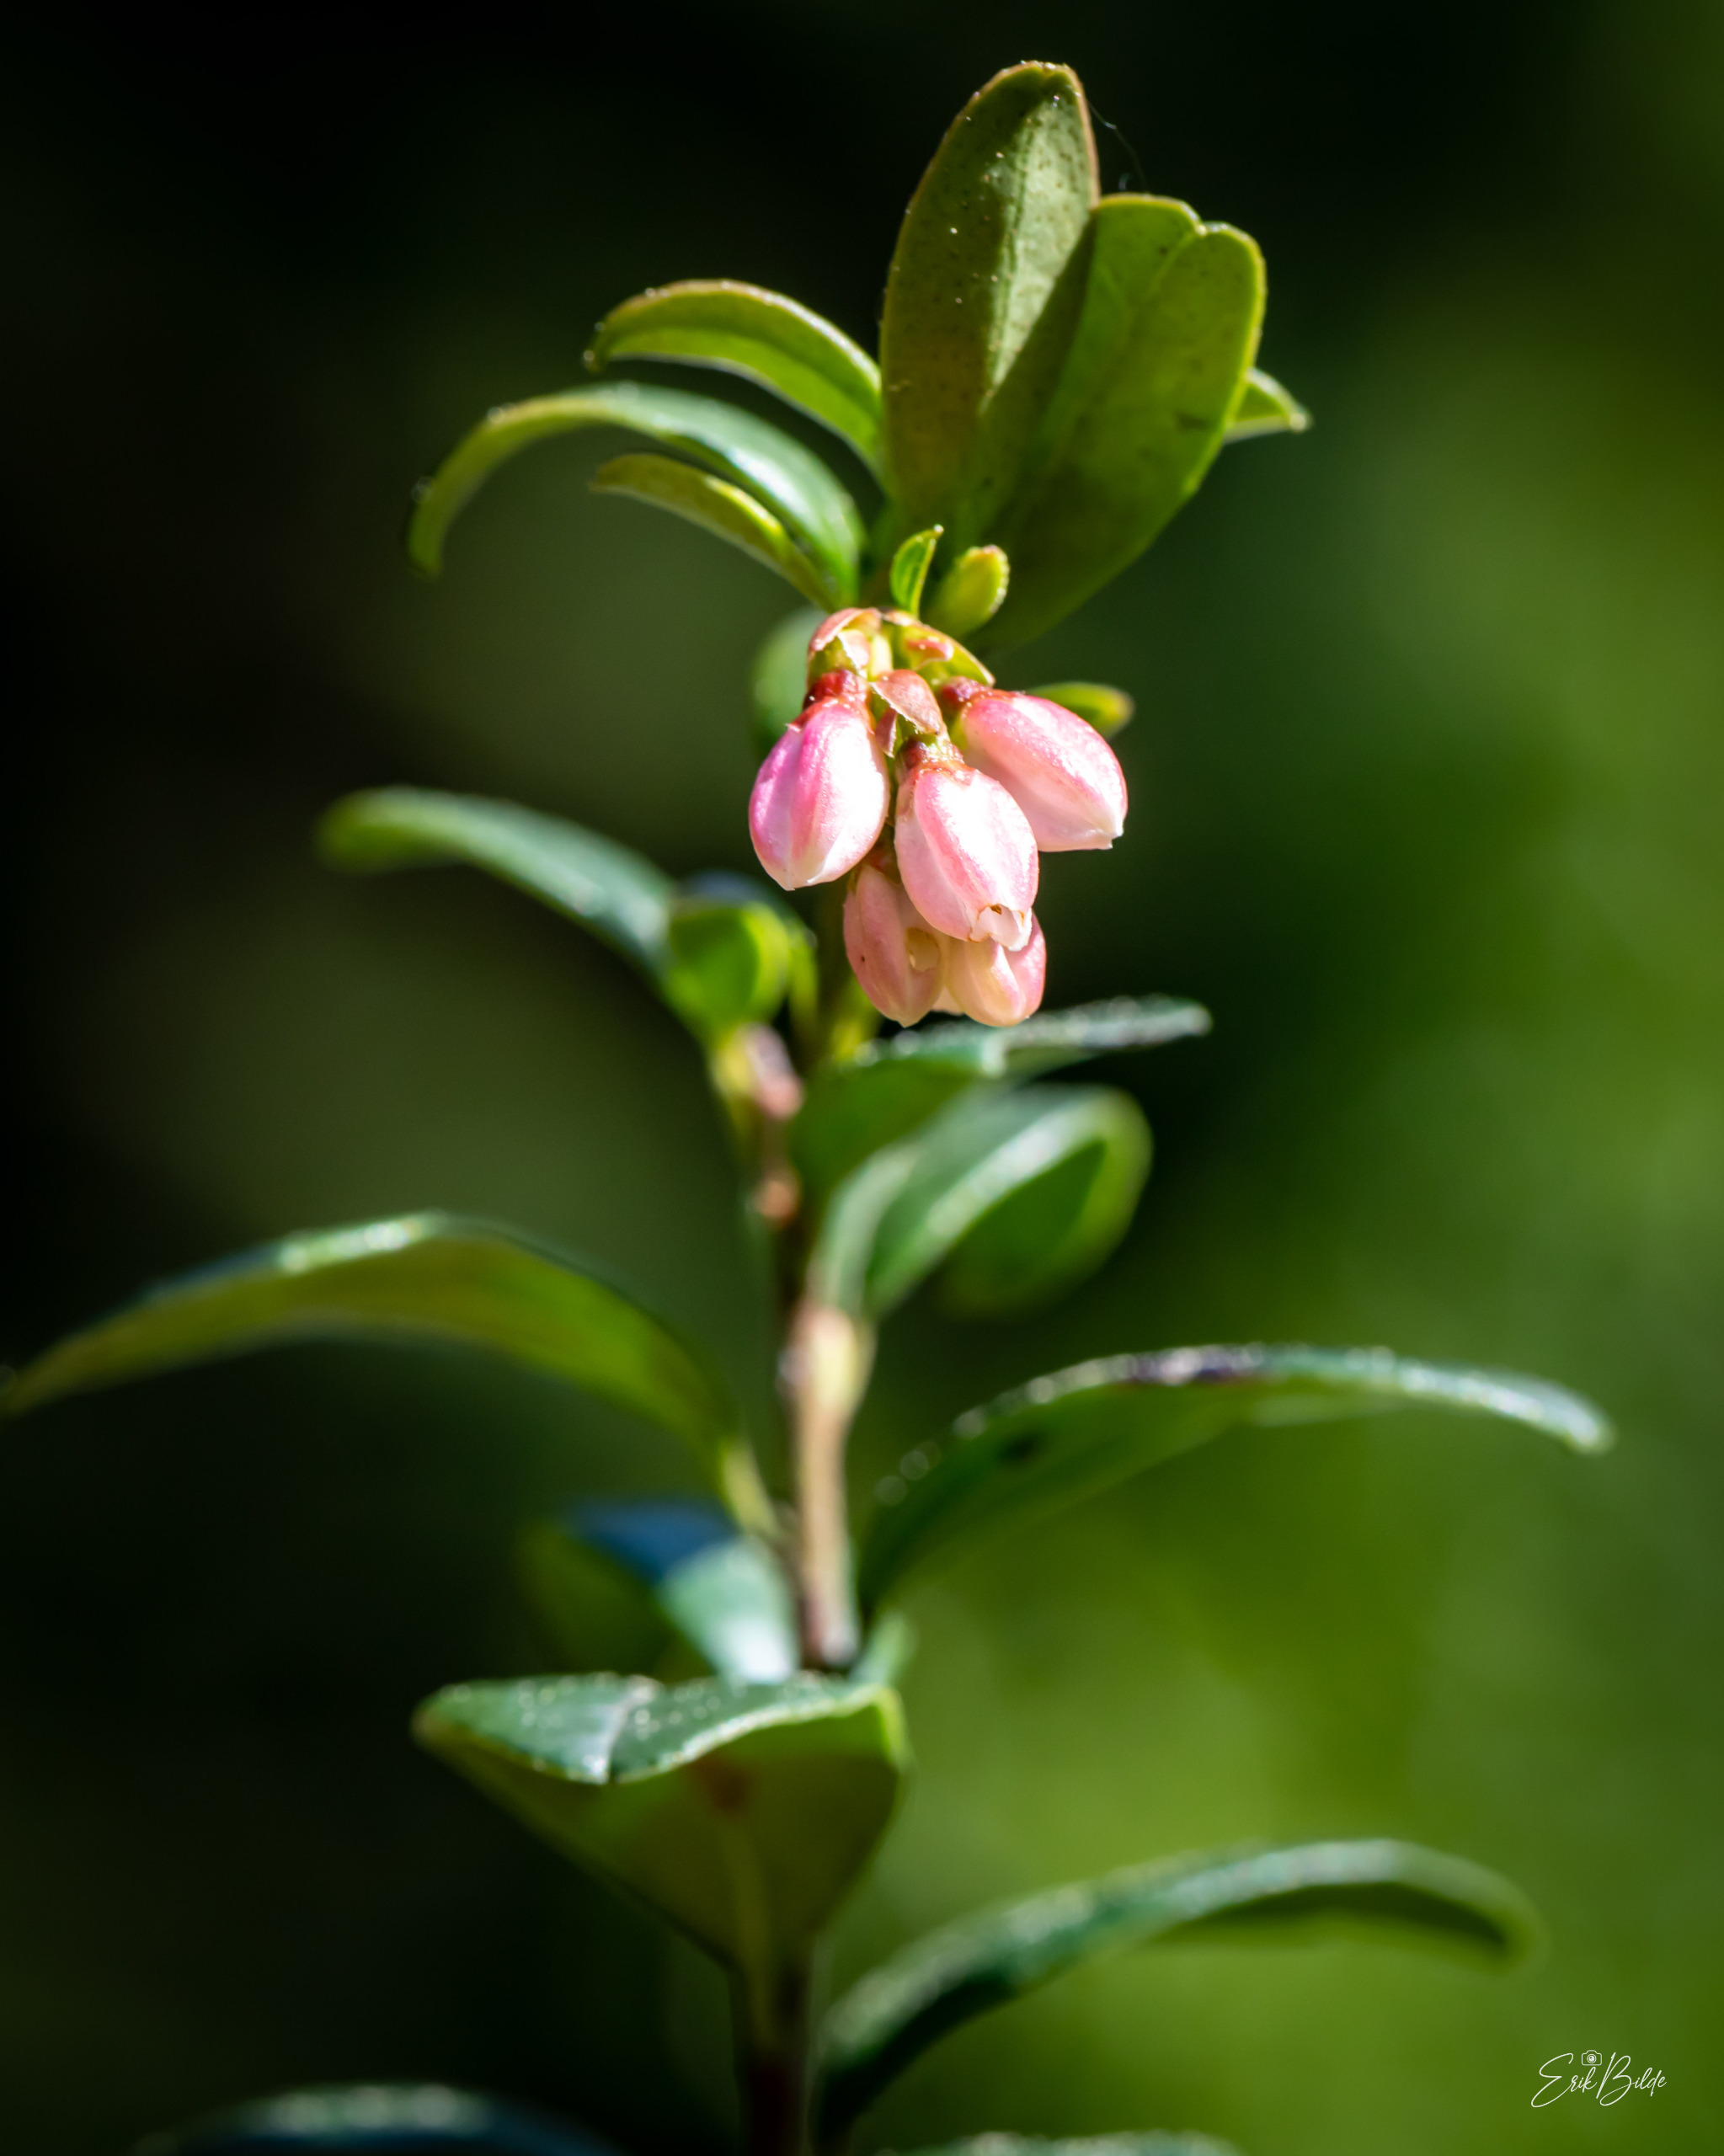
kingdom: Plantae
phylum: Tracheophyta
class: Magnoliopsida
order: Ericales
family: Ericaceae
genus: Vaccinium
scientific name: Vaccinium vitis-idaea
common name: Tyttebær
